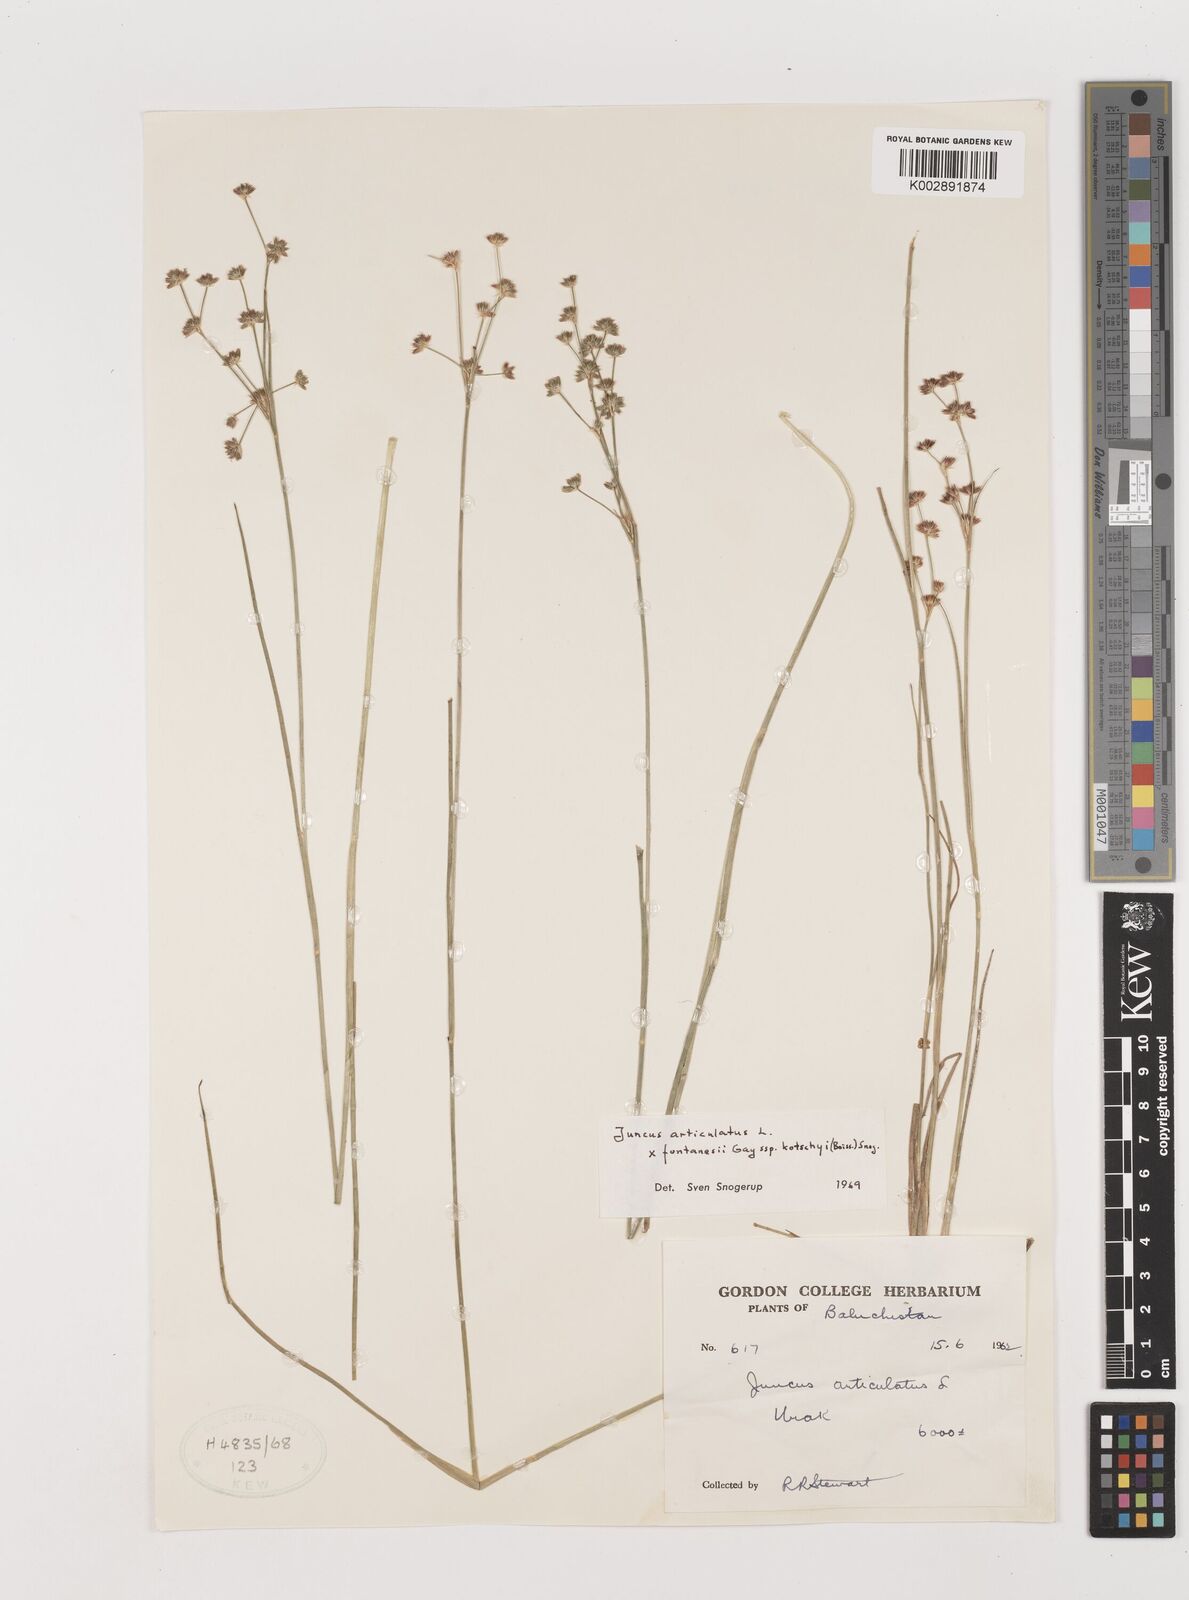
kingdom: Plantae
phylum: Tracheophyta
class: Liliopsida
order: Poales
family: Juncaceae
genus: Juncus
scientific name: Juncus articulatus
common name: Jointed rush
